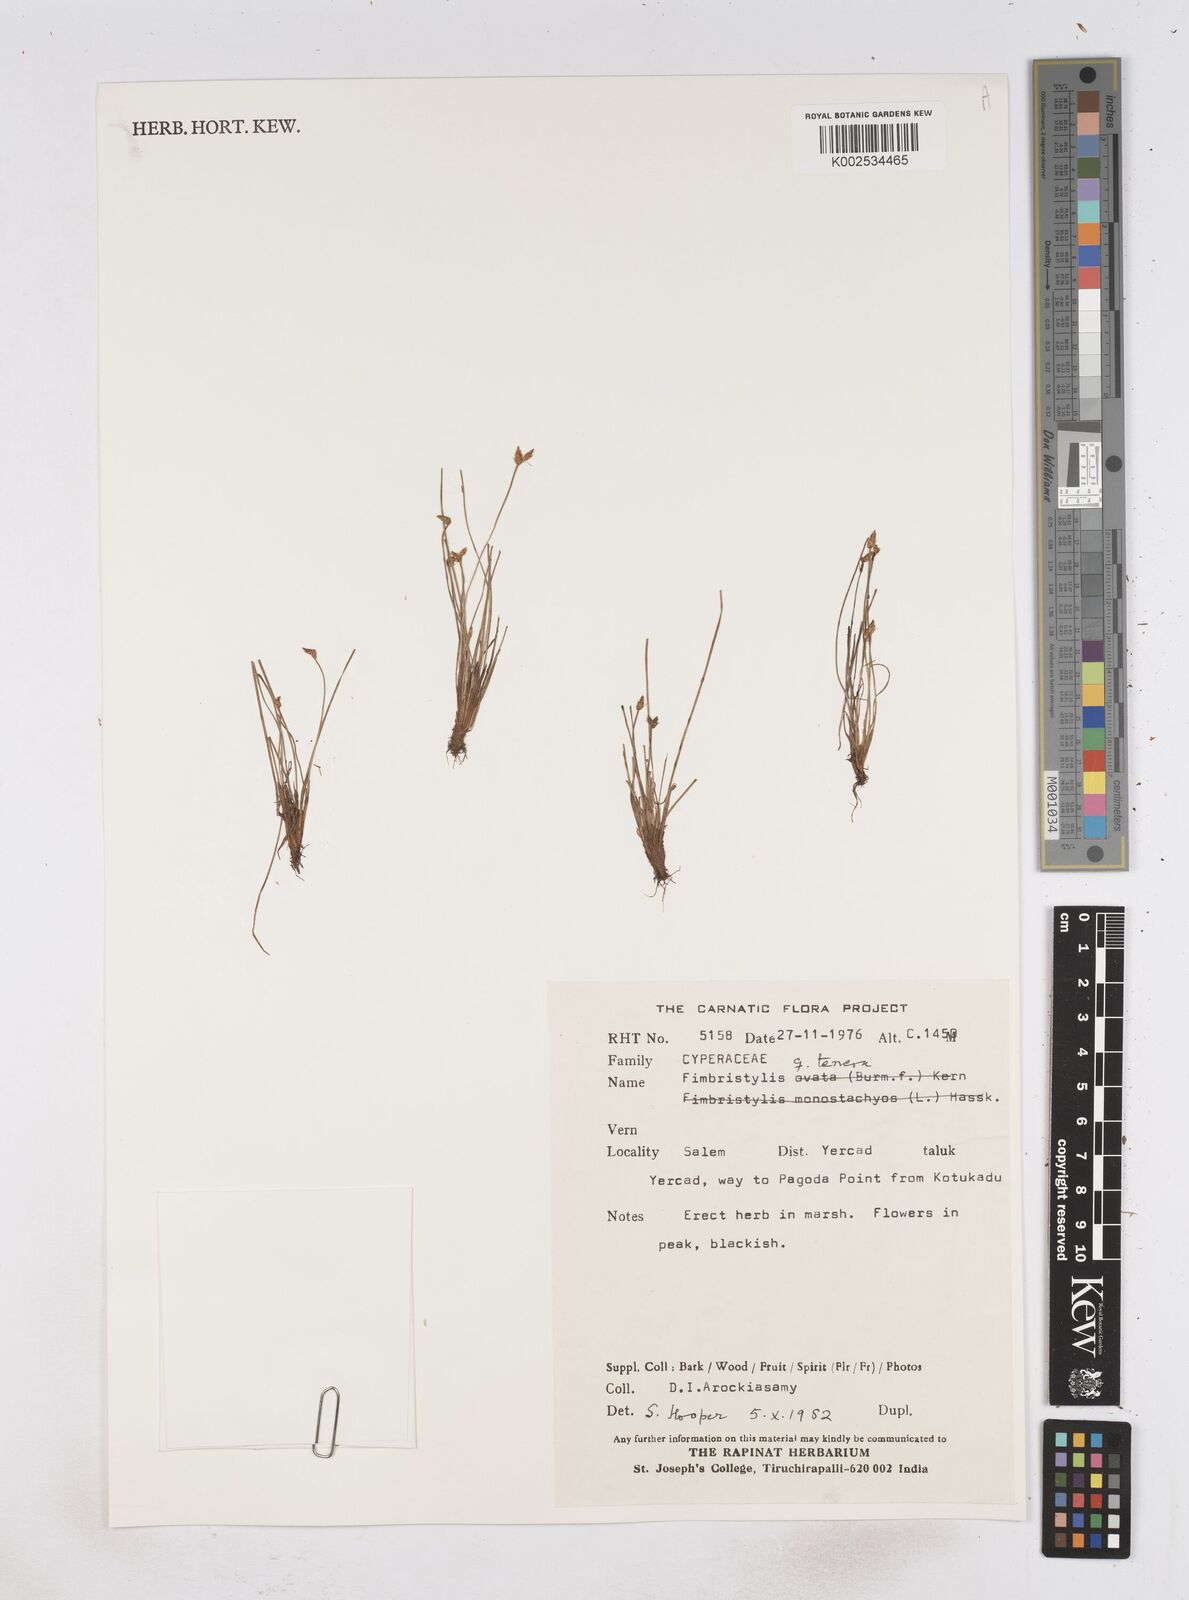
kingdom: Plantae
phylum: Tracheophyta
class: Liliopsida
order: Poales
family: Cyperaceae
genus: Fimbristylis
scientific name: Fimbristylis tenera
